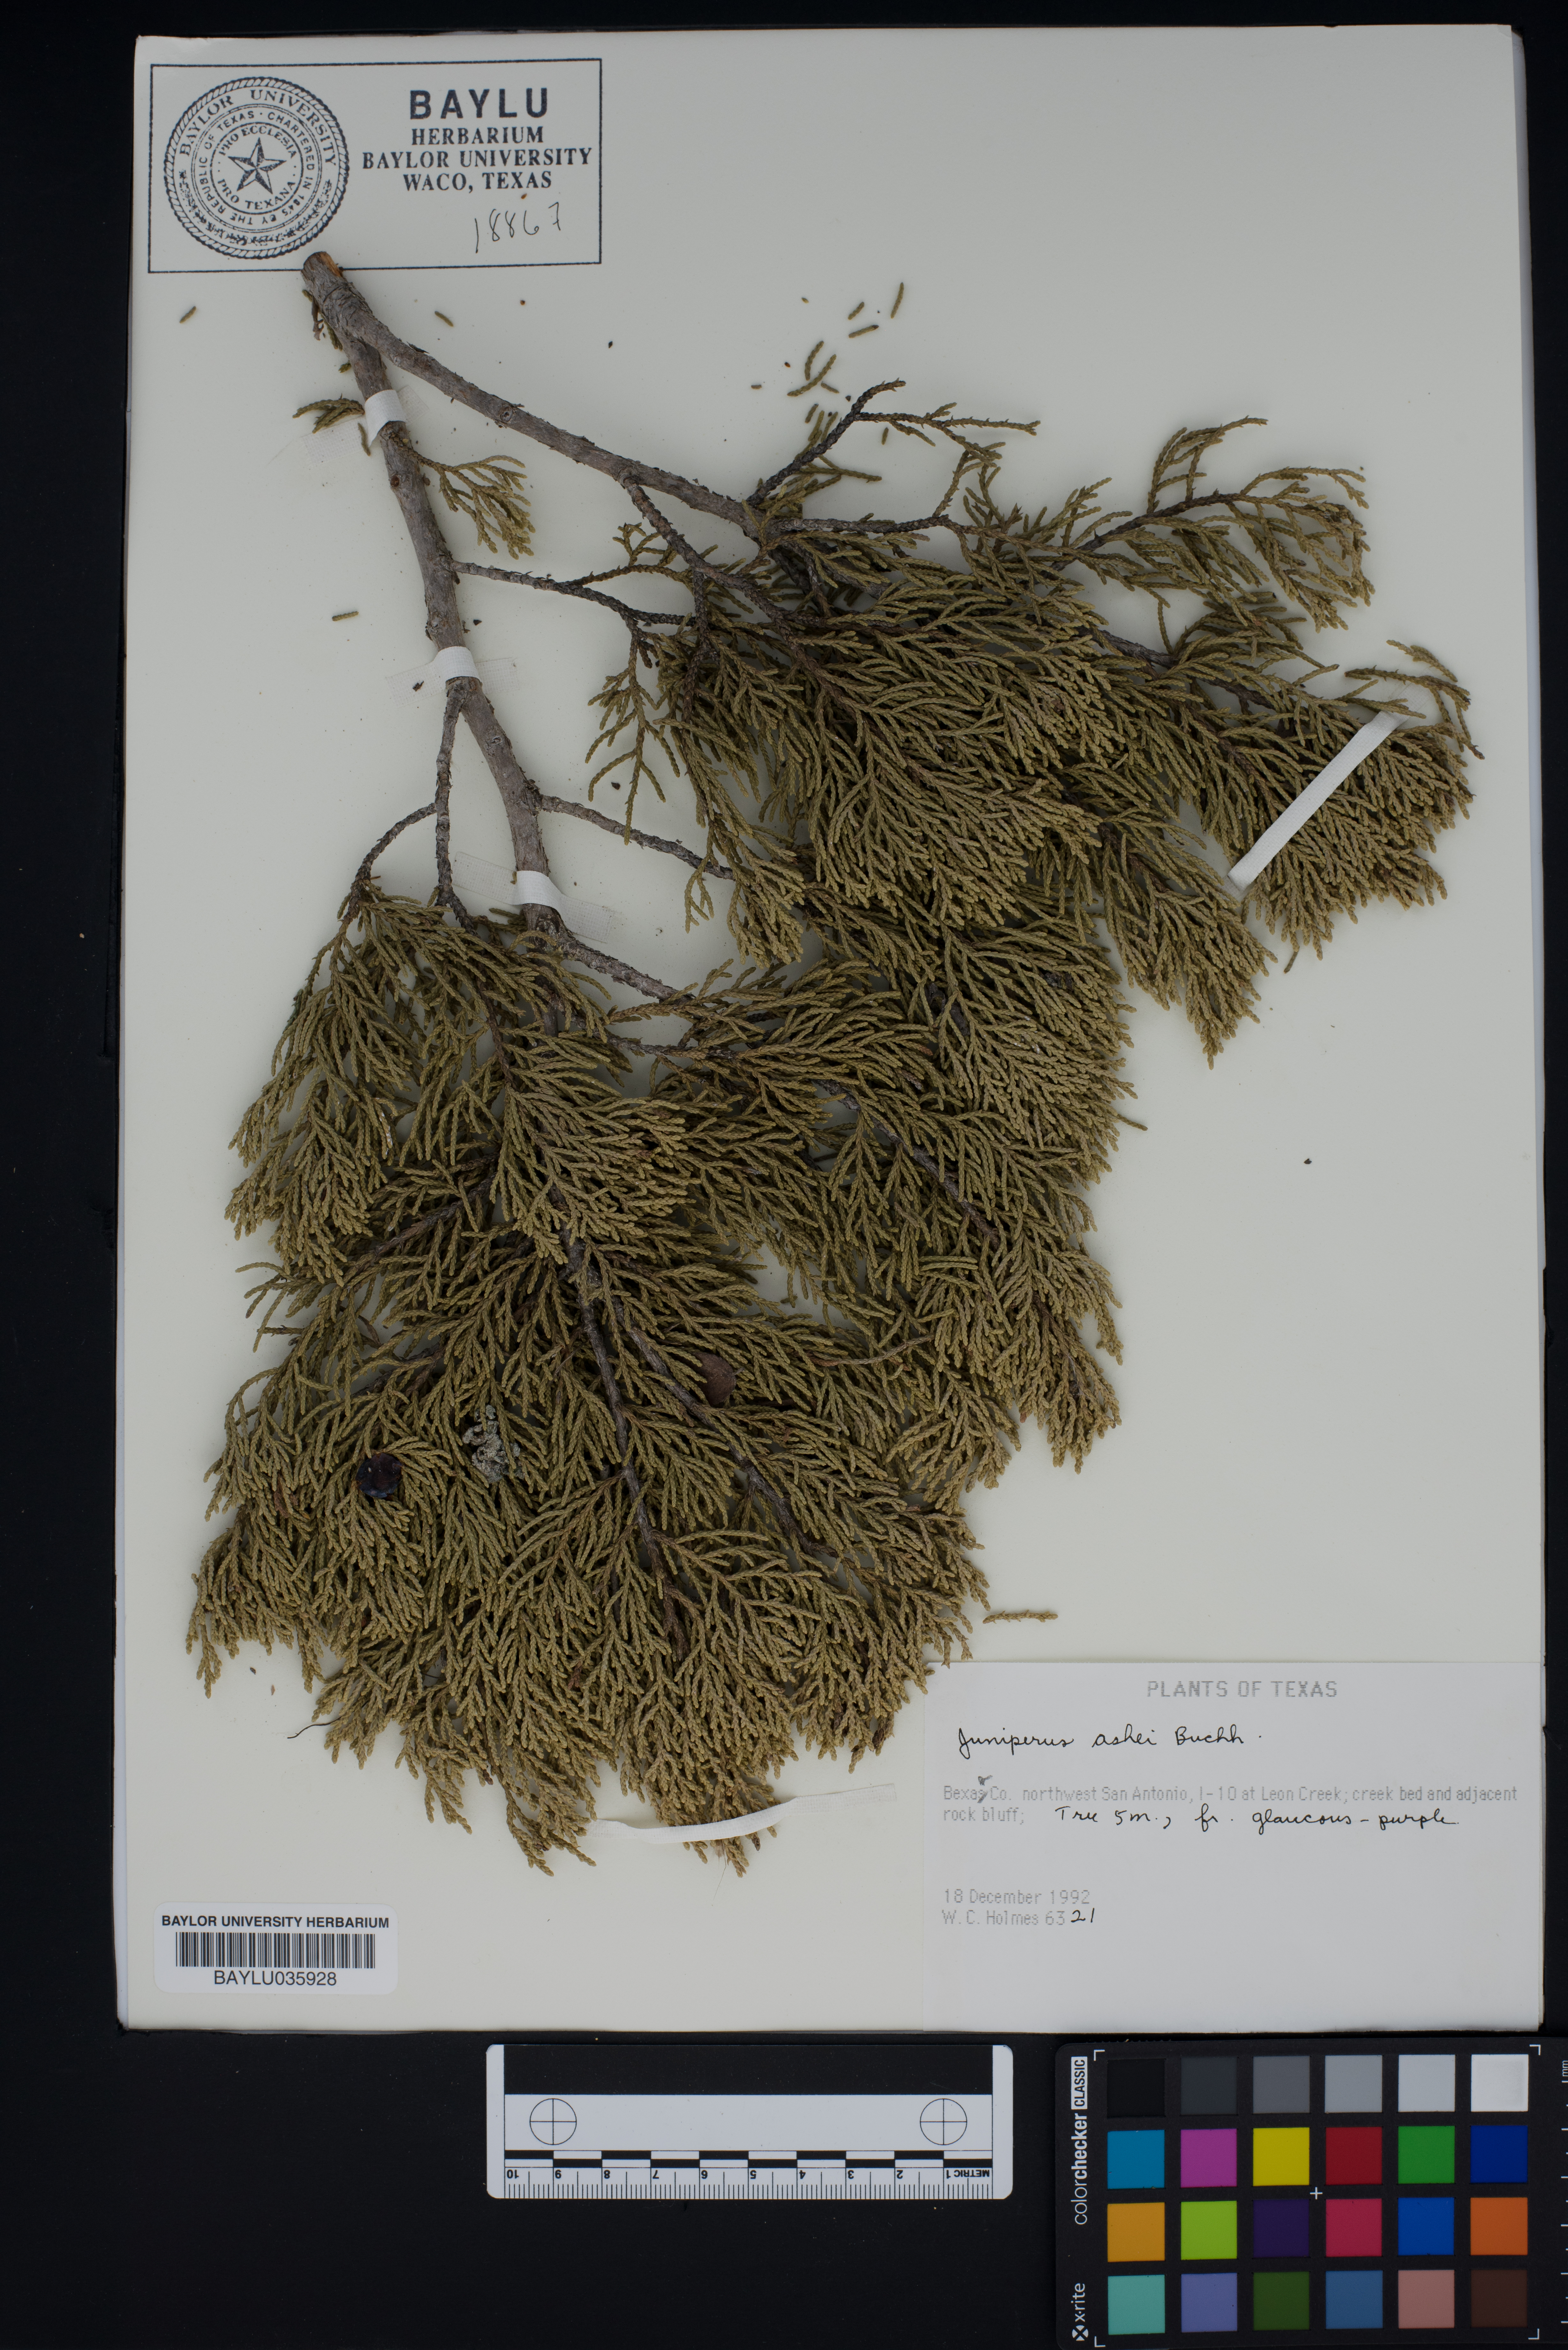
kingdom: Plantae
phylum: Tracheophyta
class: Pinopsida
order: Pinales
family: Cupressaceae
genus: Juniperus
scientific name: Juniperus ashei
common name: Mexican juniper
